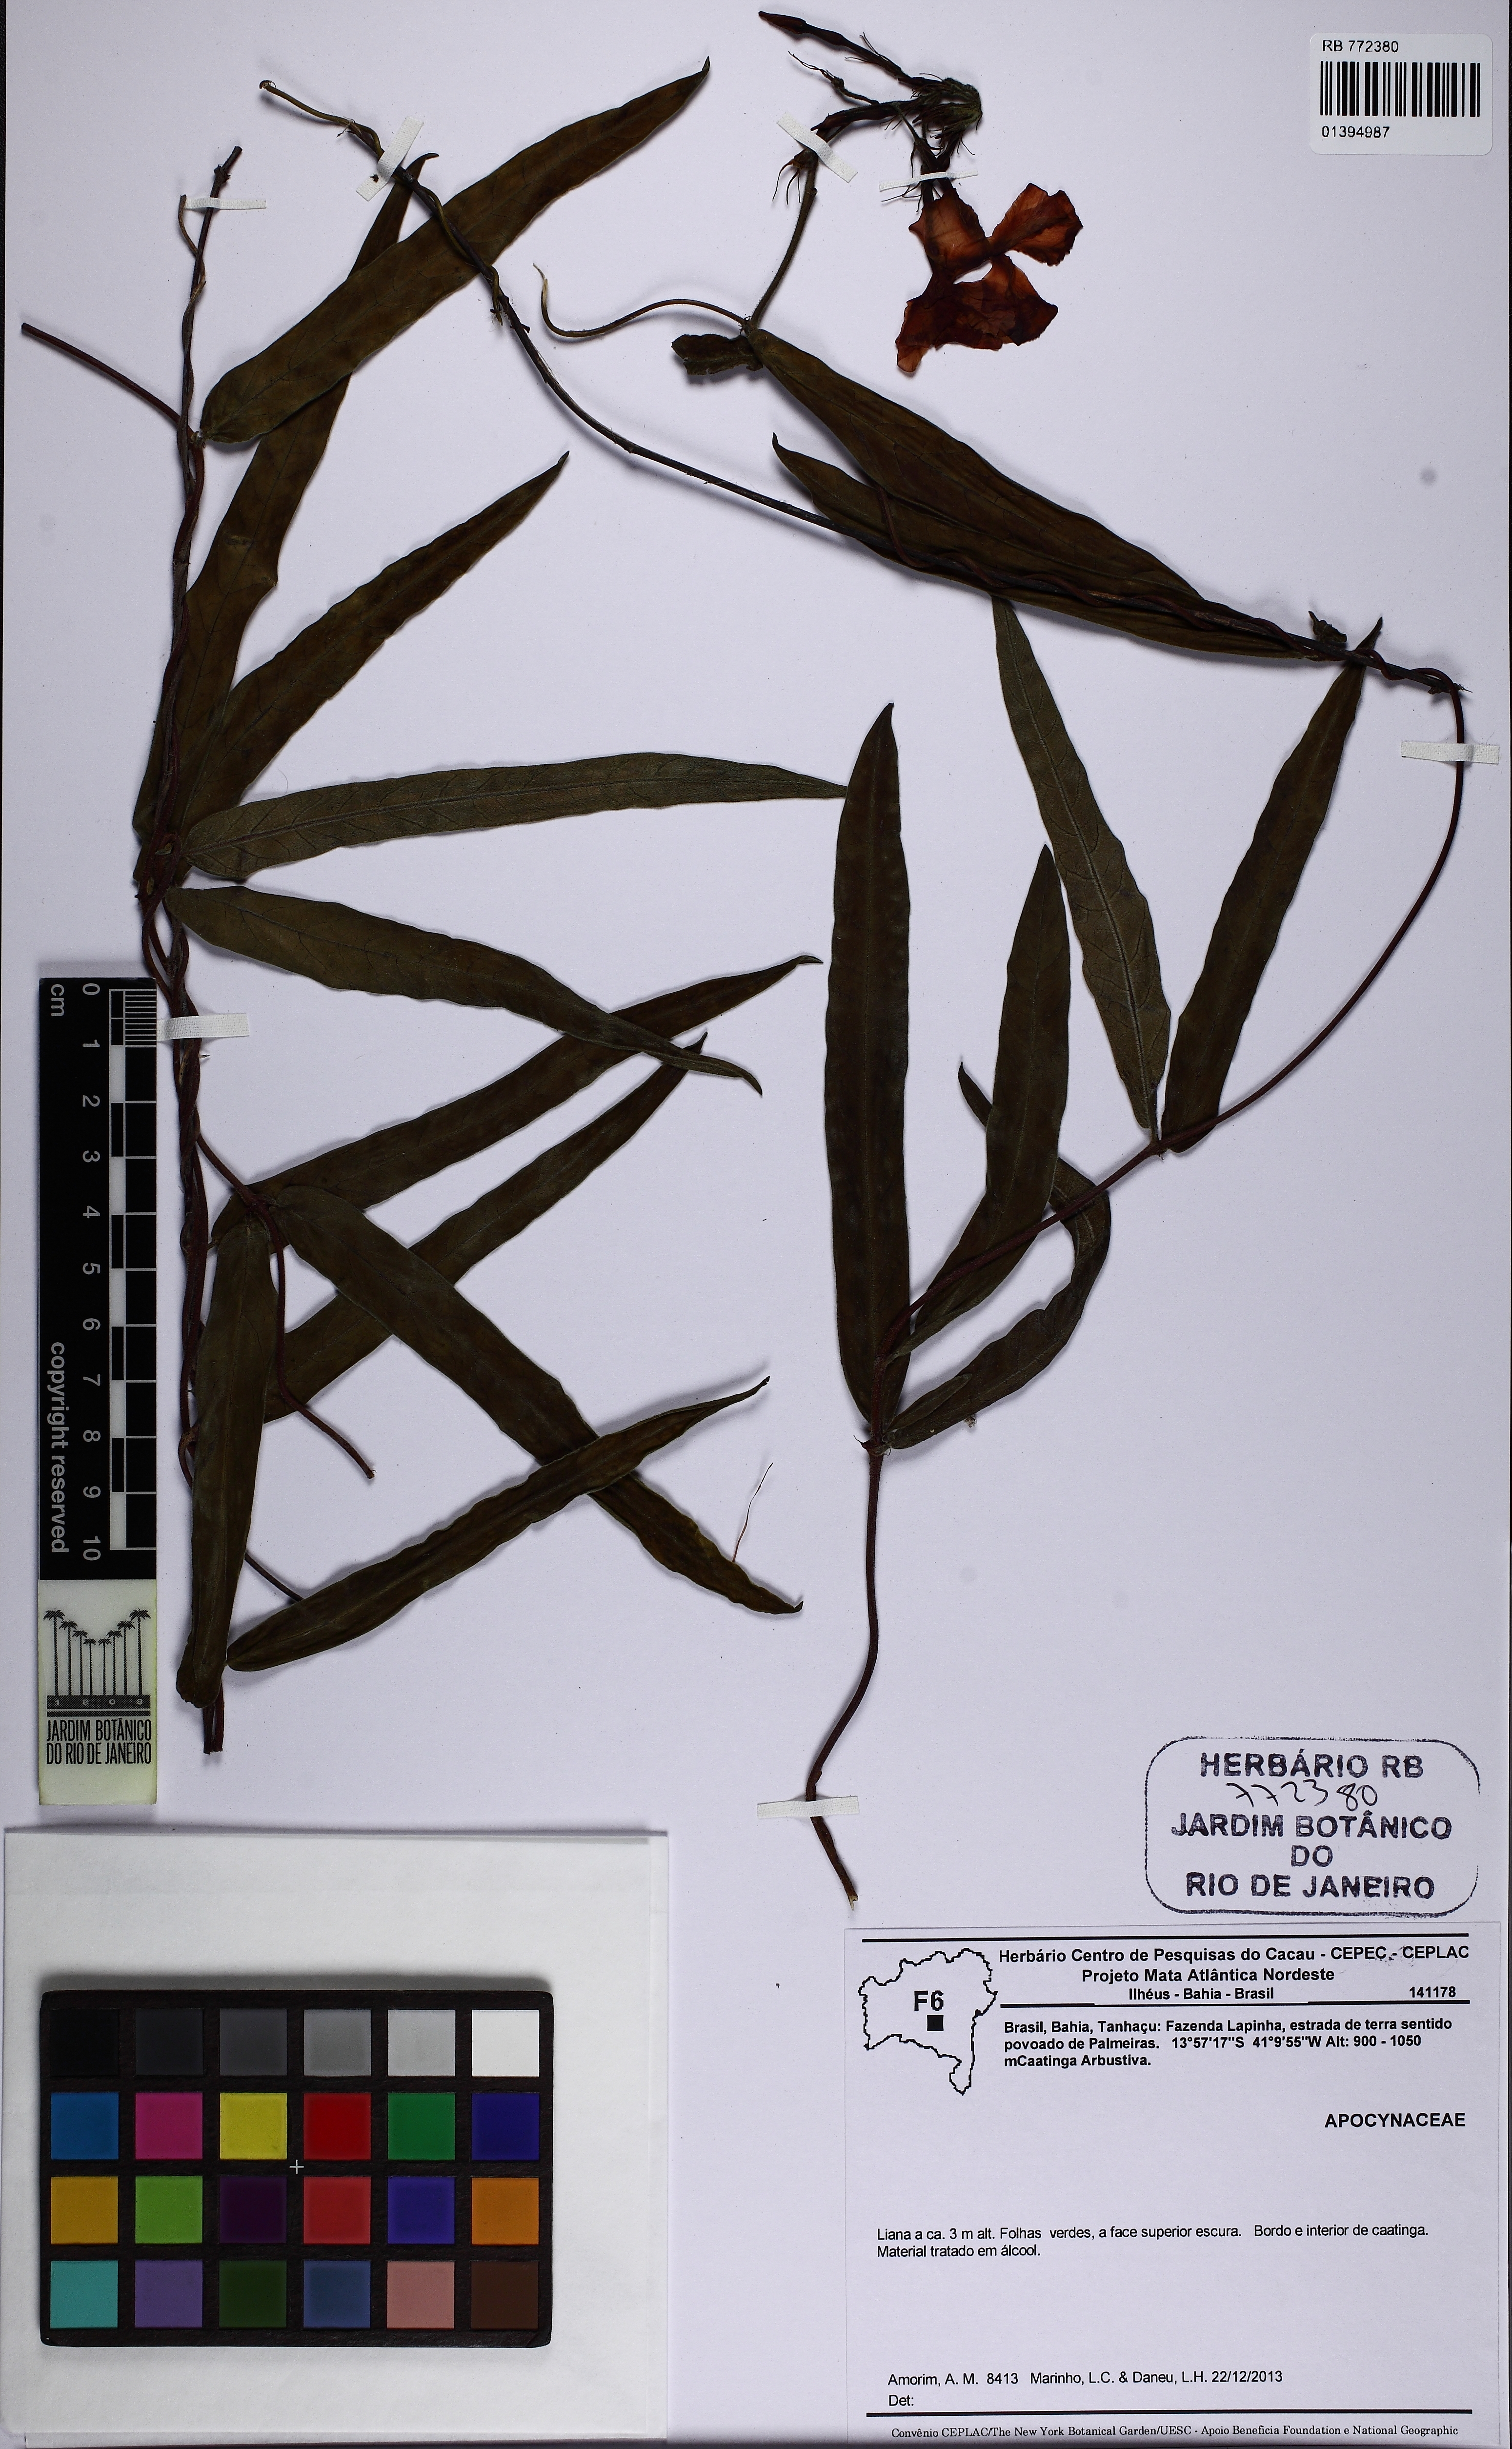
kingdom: Plantae
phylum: Tracheophyta
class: Magnoliopsida
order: Gentianales
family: Apocynaceae
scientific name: Apocynaceae
